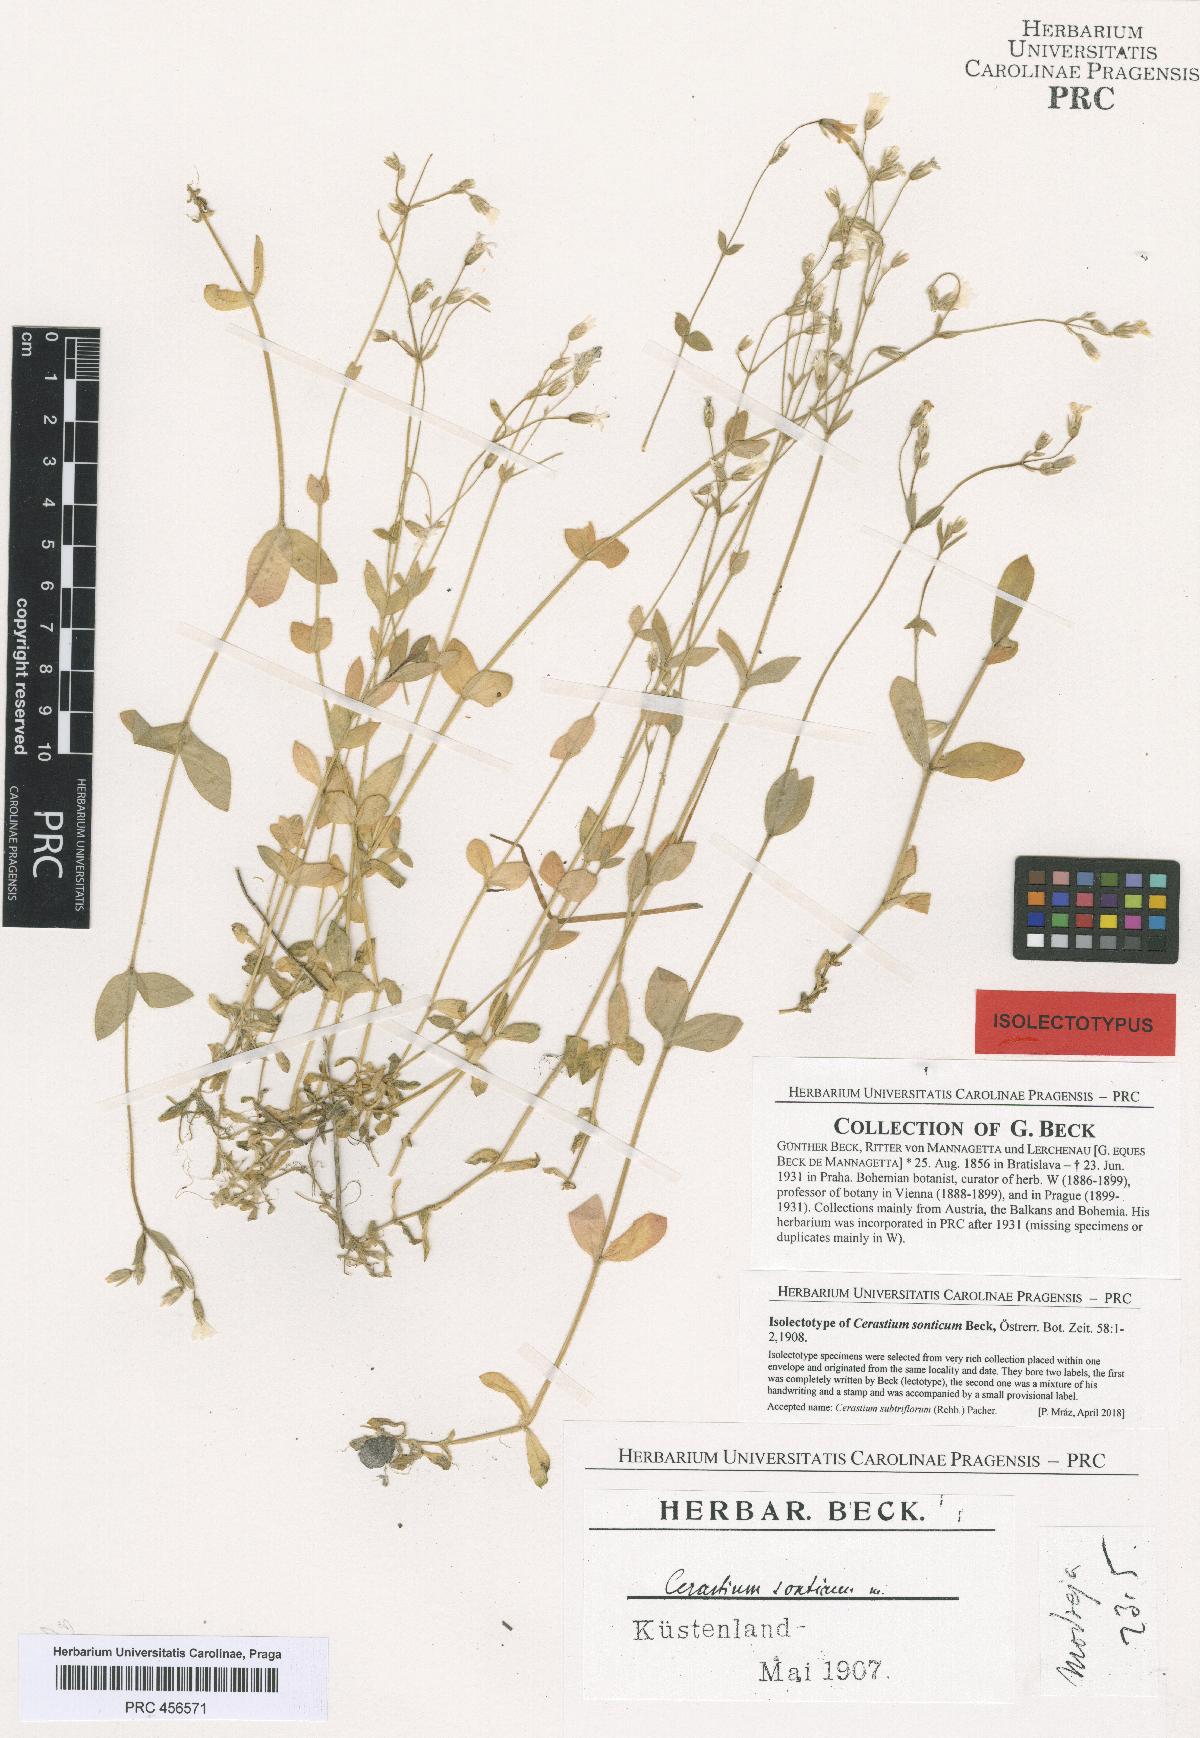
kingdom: Plantae
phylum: Tracheophyta
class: Magnoliopsida
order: Caryophyllales
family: Caryophyllaceae
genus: Cerastium
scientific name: Cerastium subtriflorum
